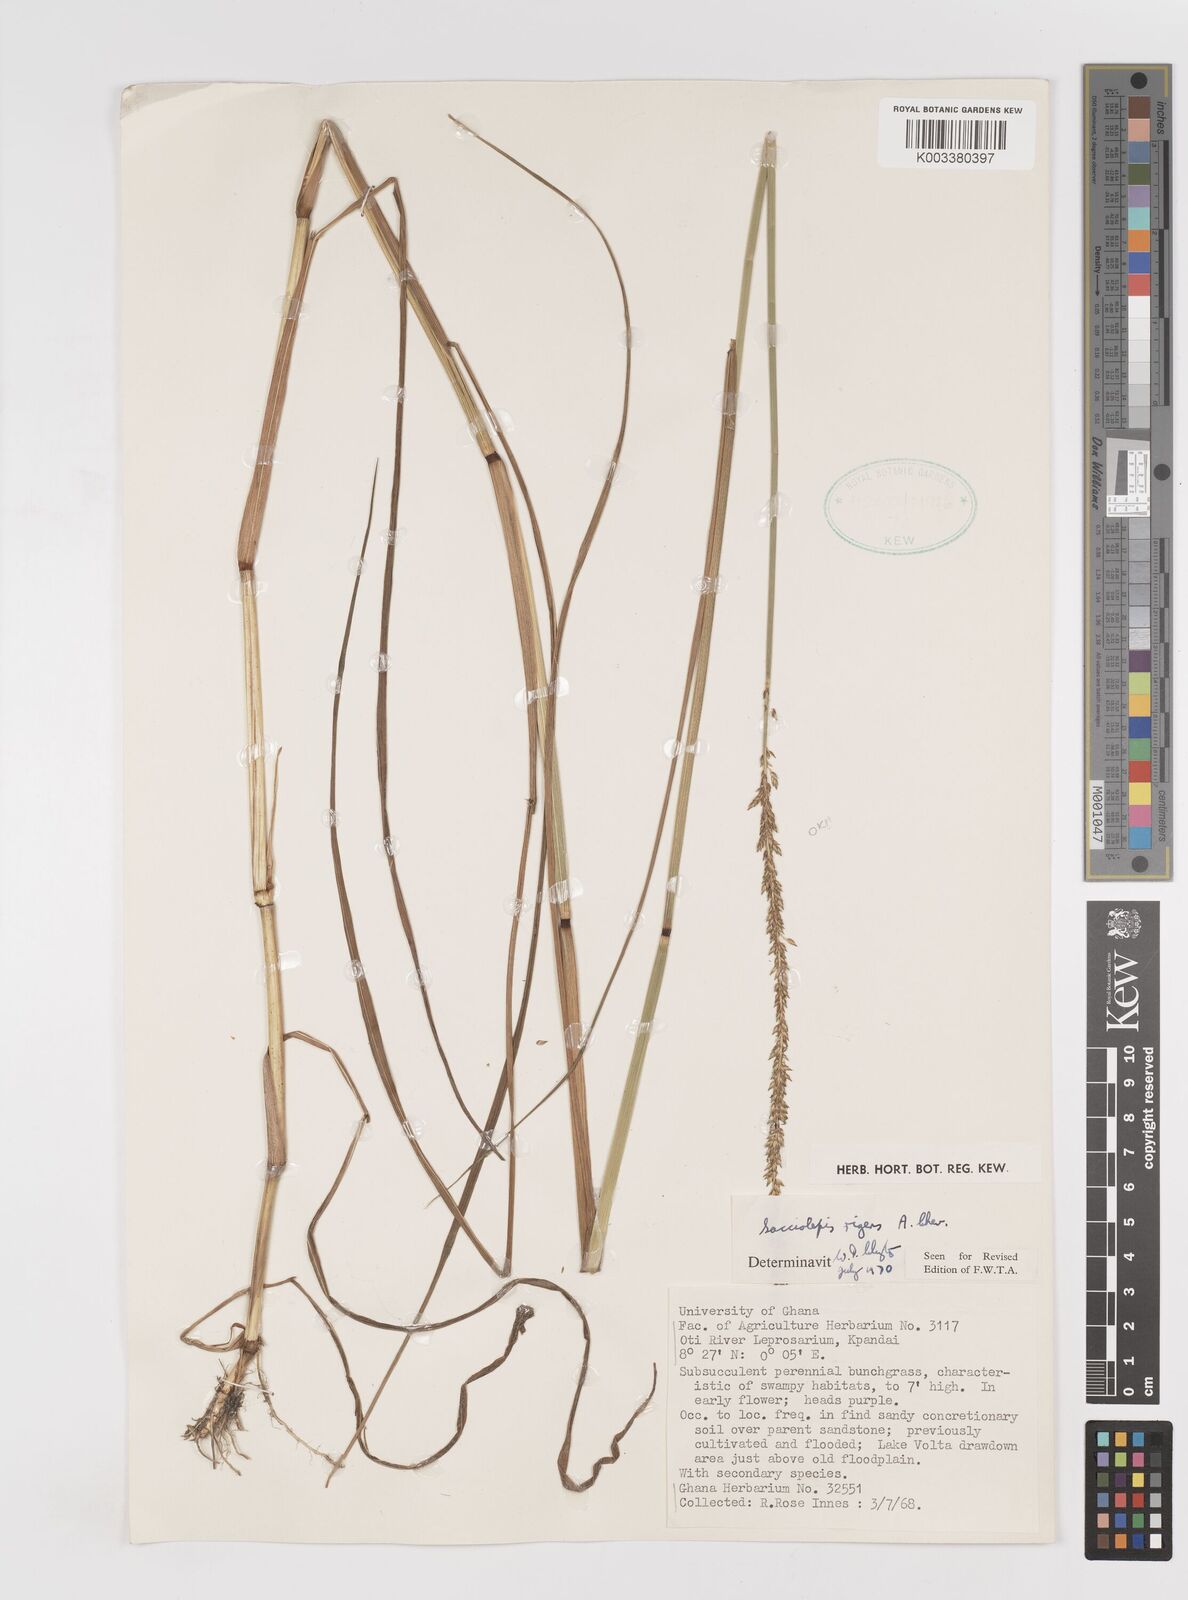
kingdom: Plantae
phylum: Tracheophyta
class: Liliopsida
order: Poales
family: Poaceae
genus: Sacciolepis
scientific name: Sacciolepis leptorrhachis
